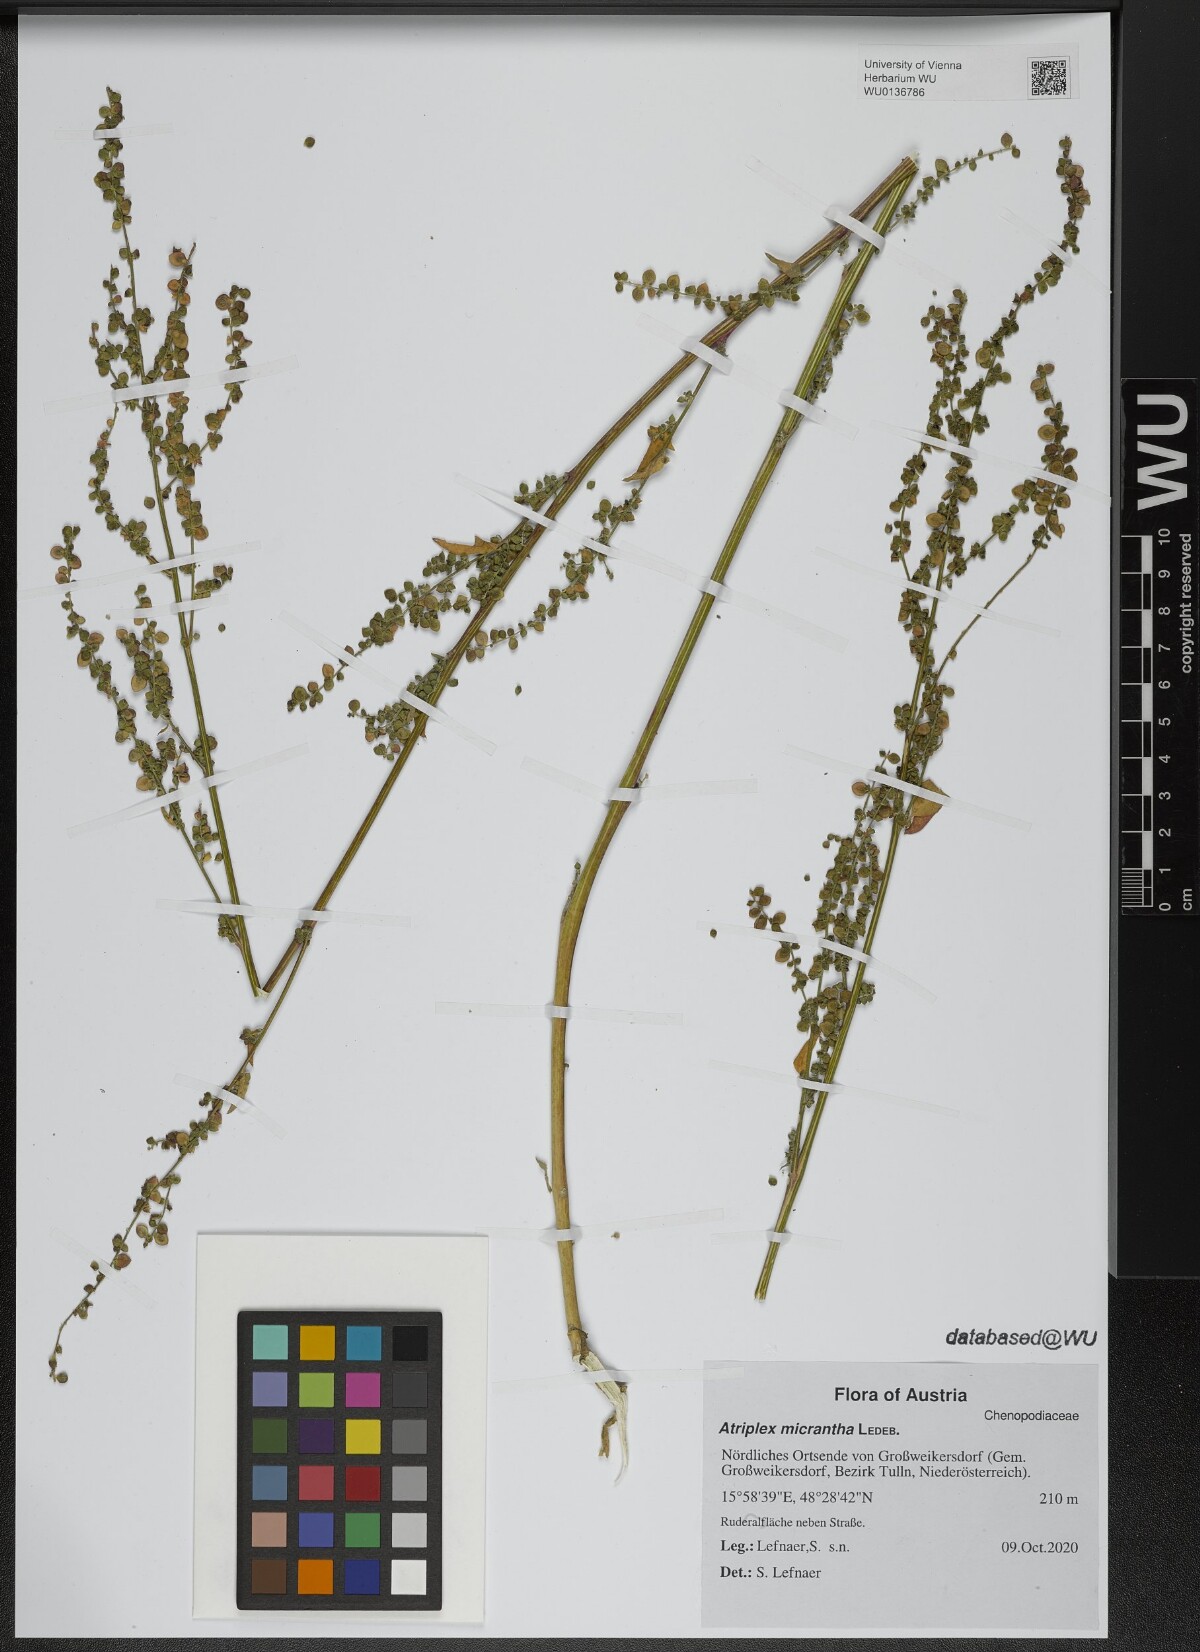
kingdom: Plantae
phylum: Tracheophyta
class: Magnoliopsida
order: Caryophyllales
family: Amaranthaceae
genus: Atriplex
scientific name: Atriplex micrantha
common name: Twoscale saltbush
